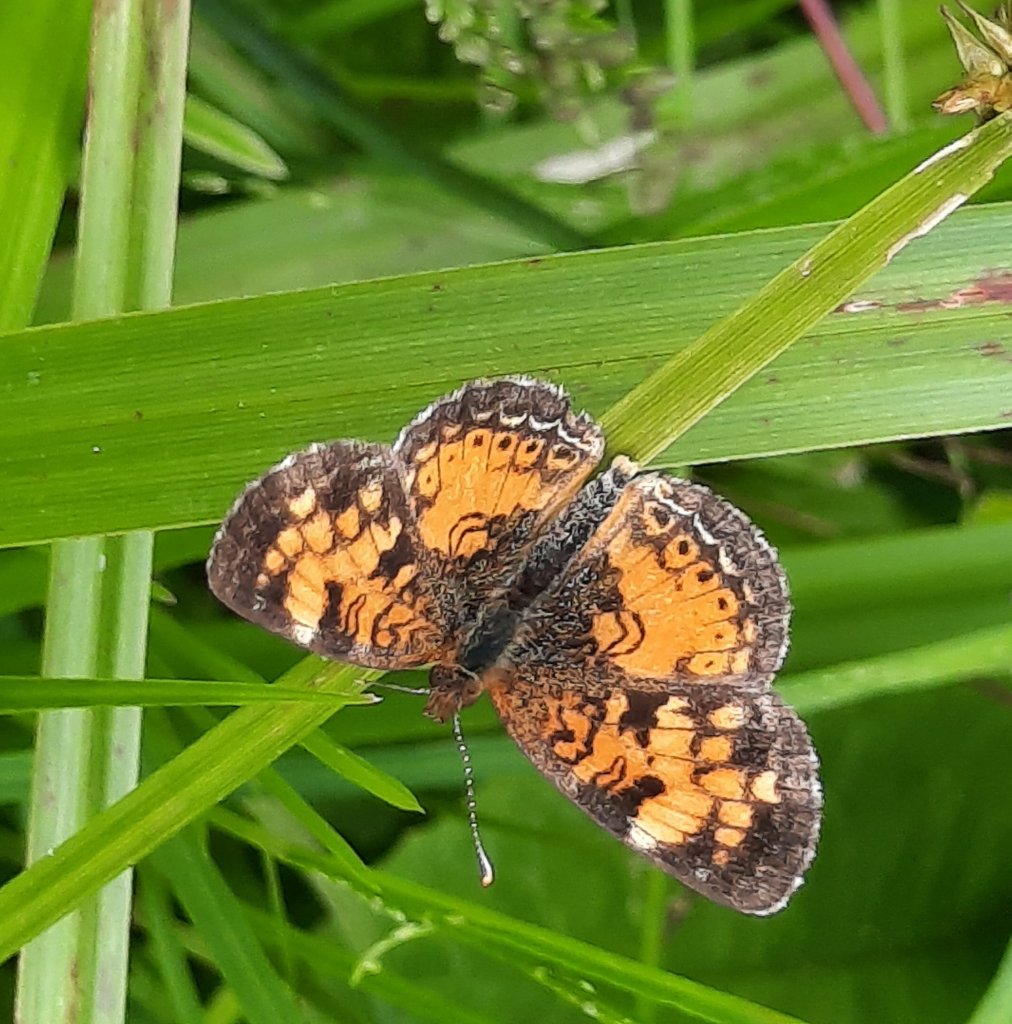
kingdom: Animalia
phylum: Arthropoda
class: Insecta
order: Lepidoptera
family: Nymphalidae
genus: Chlosyne
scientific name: Chlosyne harrisii
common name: Harris's Checkerspot
